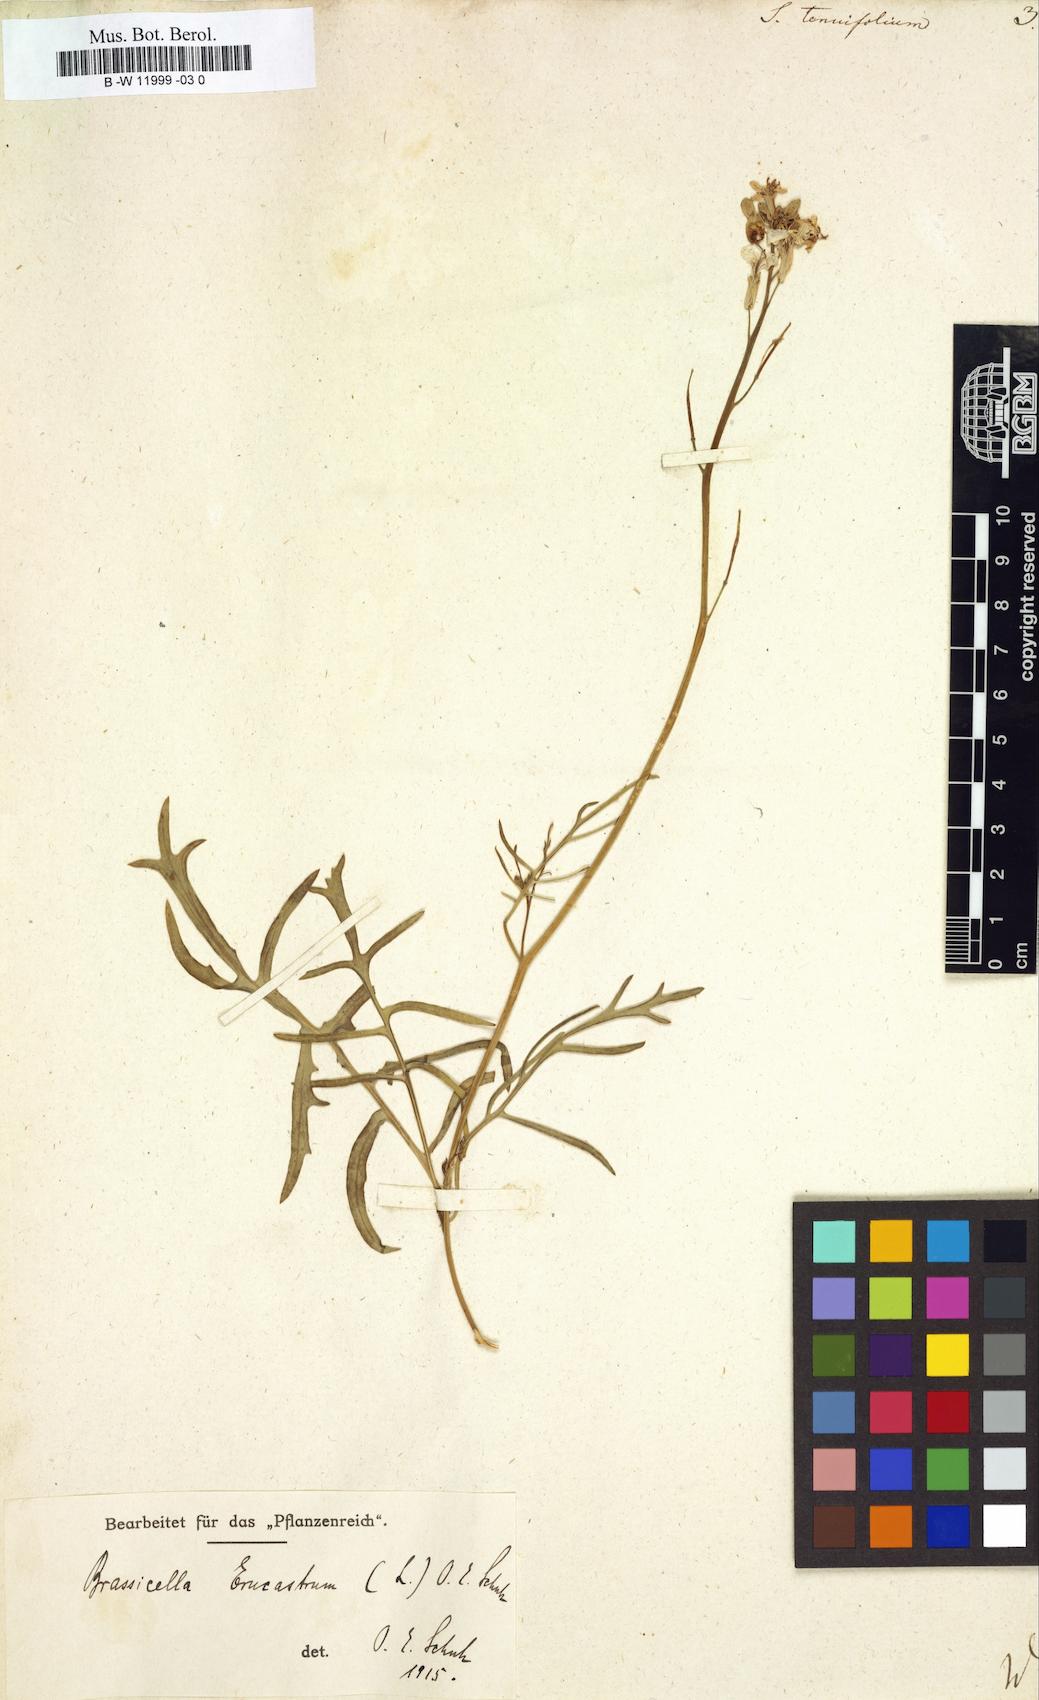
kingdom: Plantae
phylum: Tracheophyta
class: Magnoliopsida
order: Brassicales
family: Brassicaceae
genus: Sisymbrium
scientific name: Sisymbrium tenuifolium
